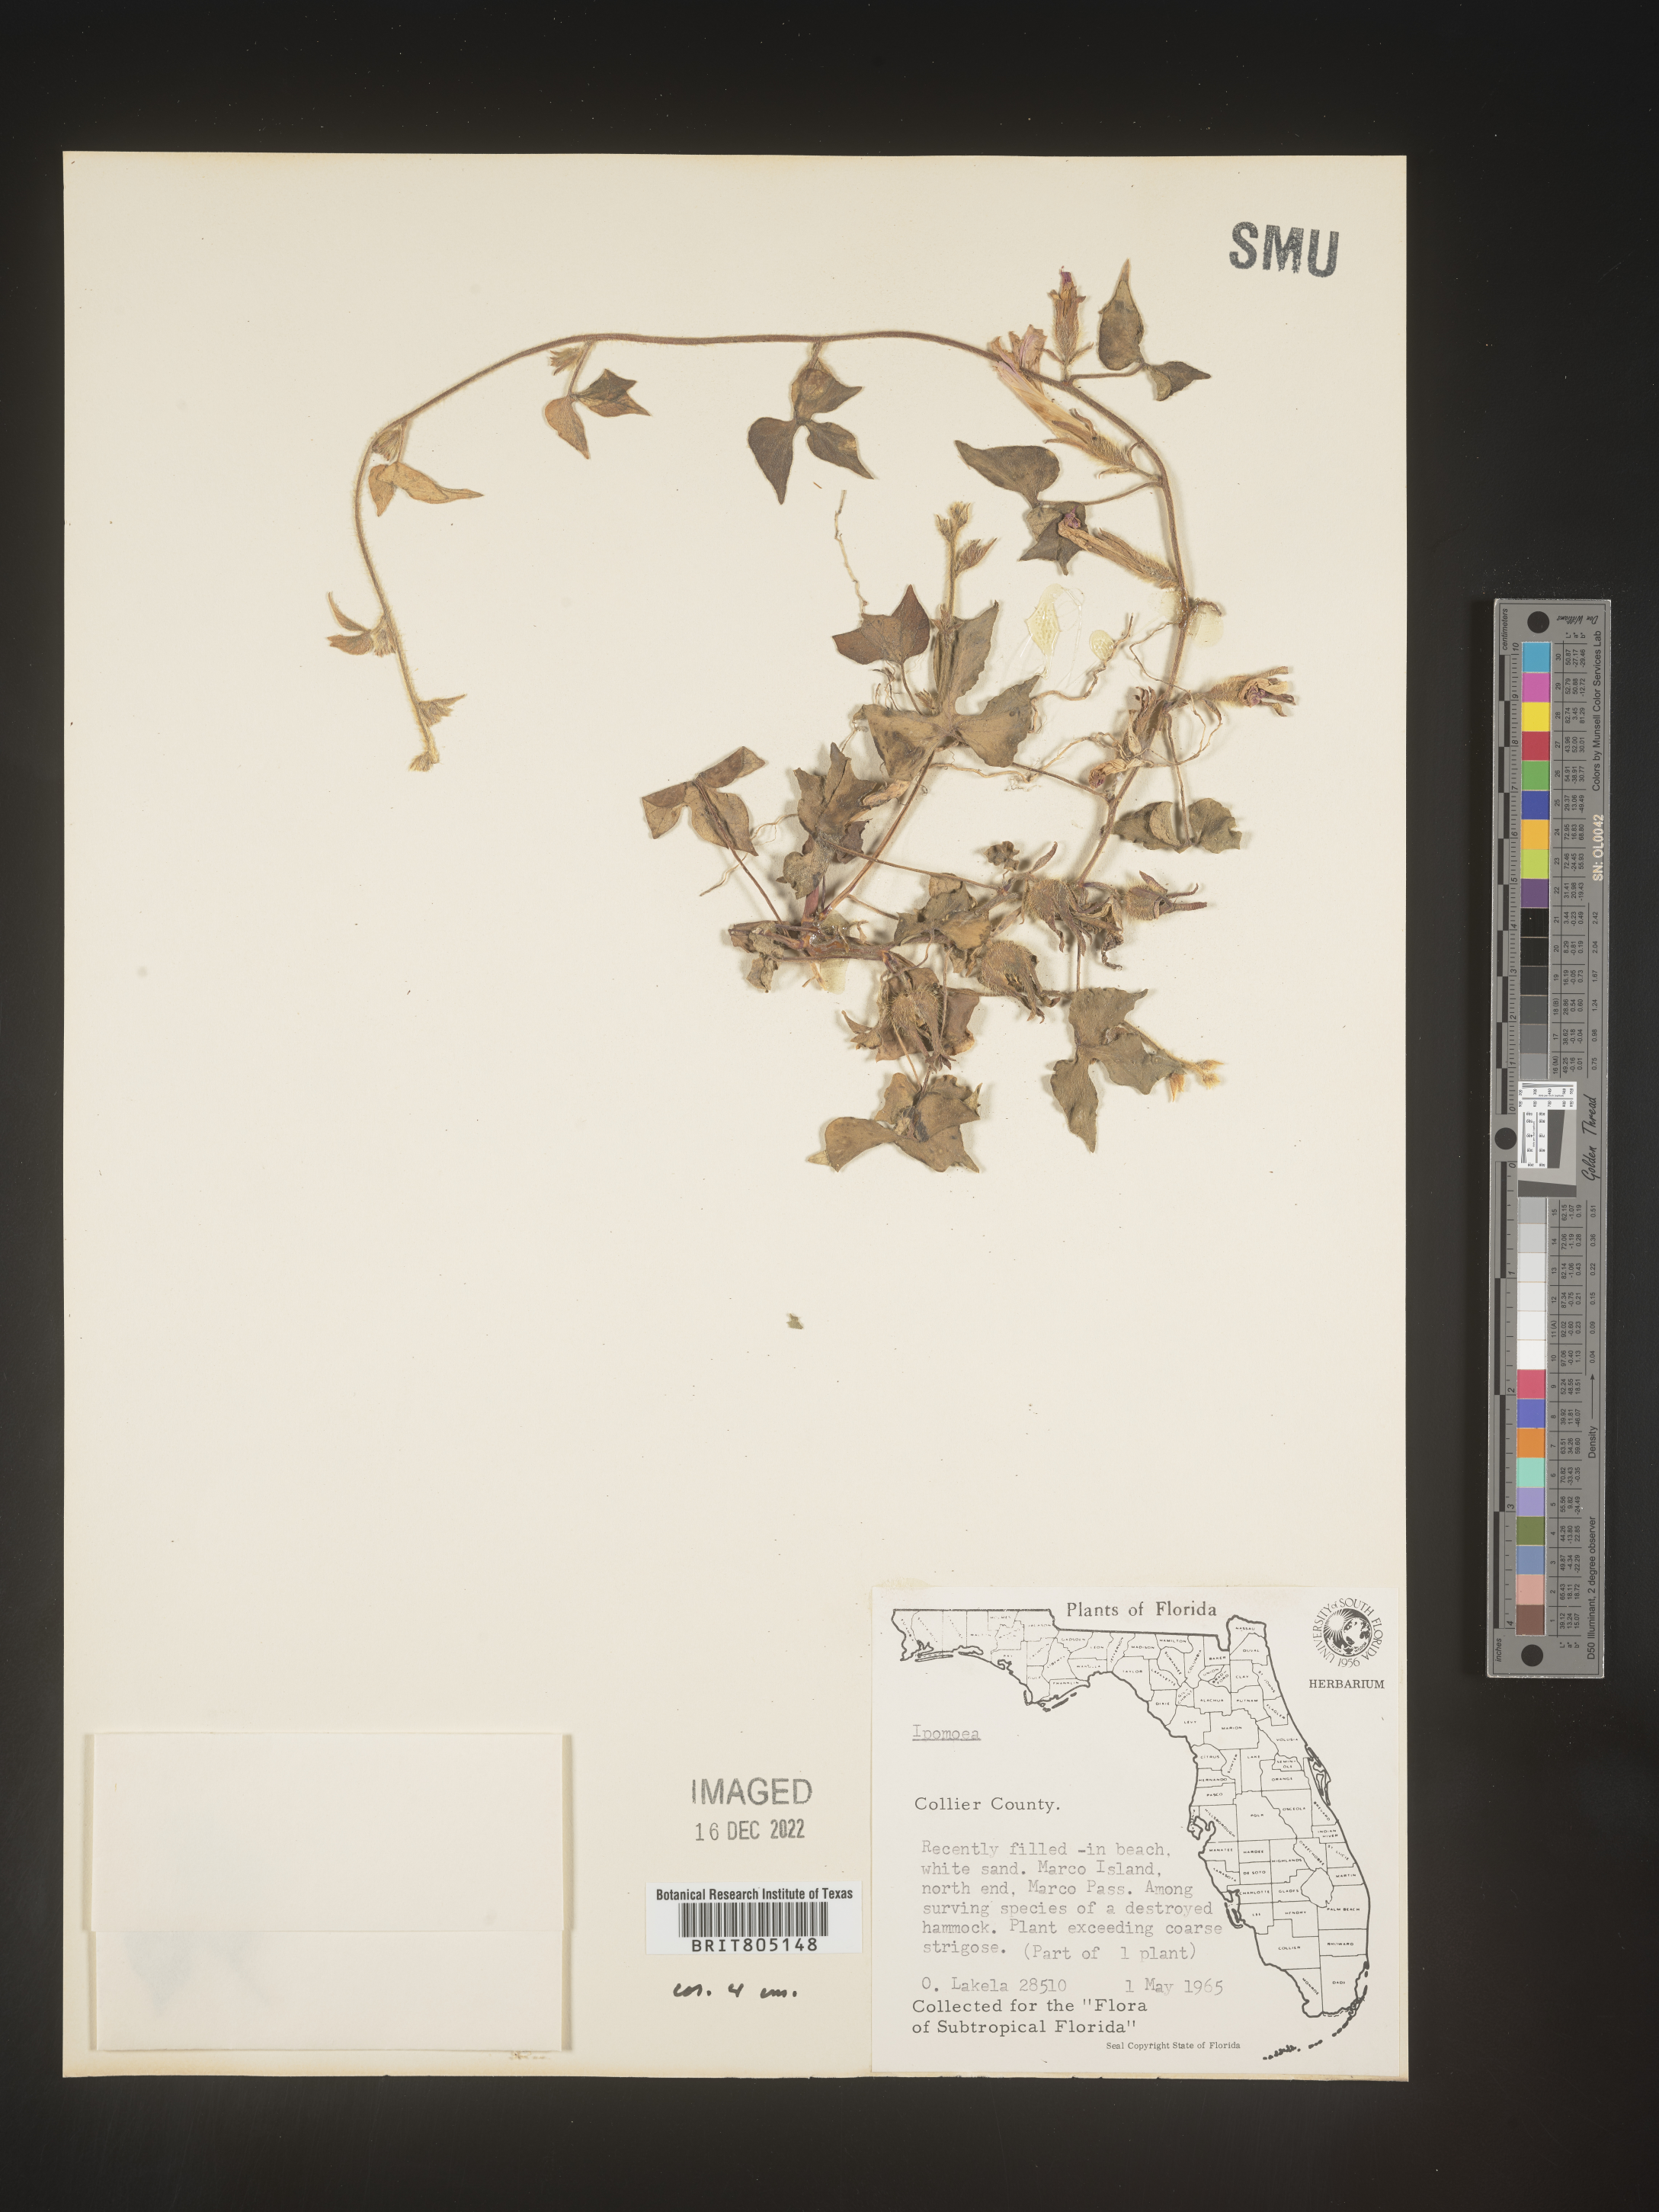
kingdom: Plantae
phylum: Tracheophyta
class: Magnoliopsida
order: Solanales
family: Convolvulaceae
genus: Ipomoea
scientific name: Ipomoea
